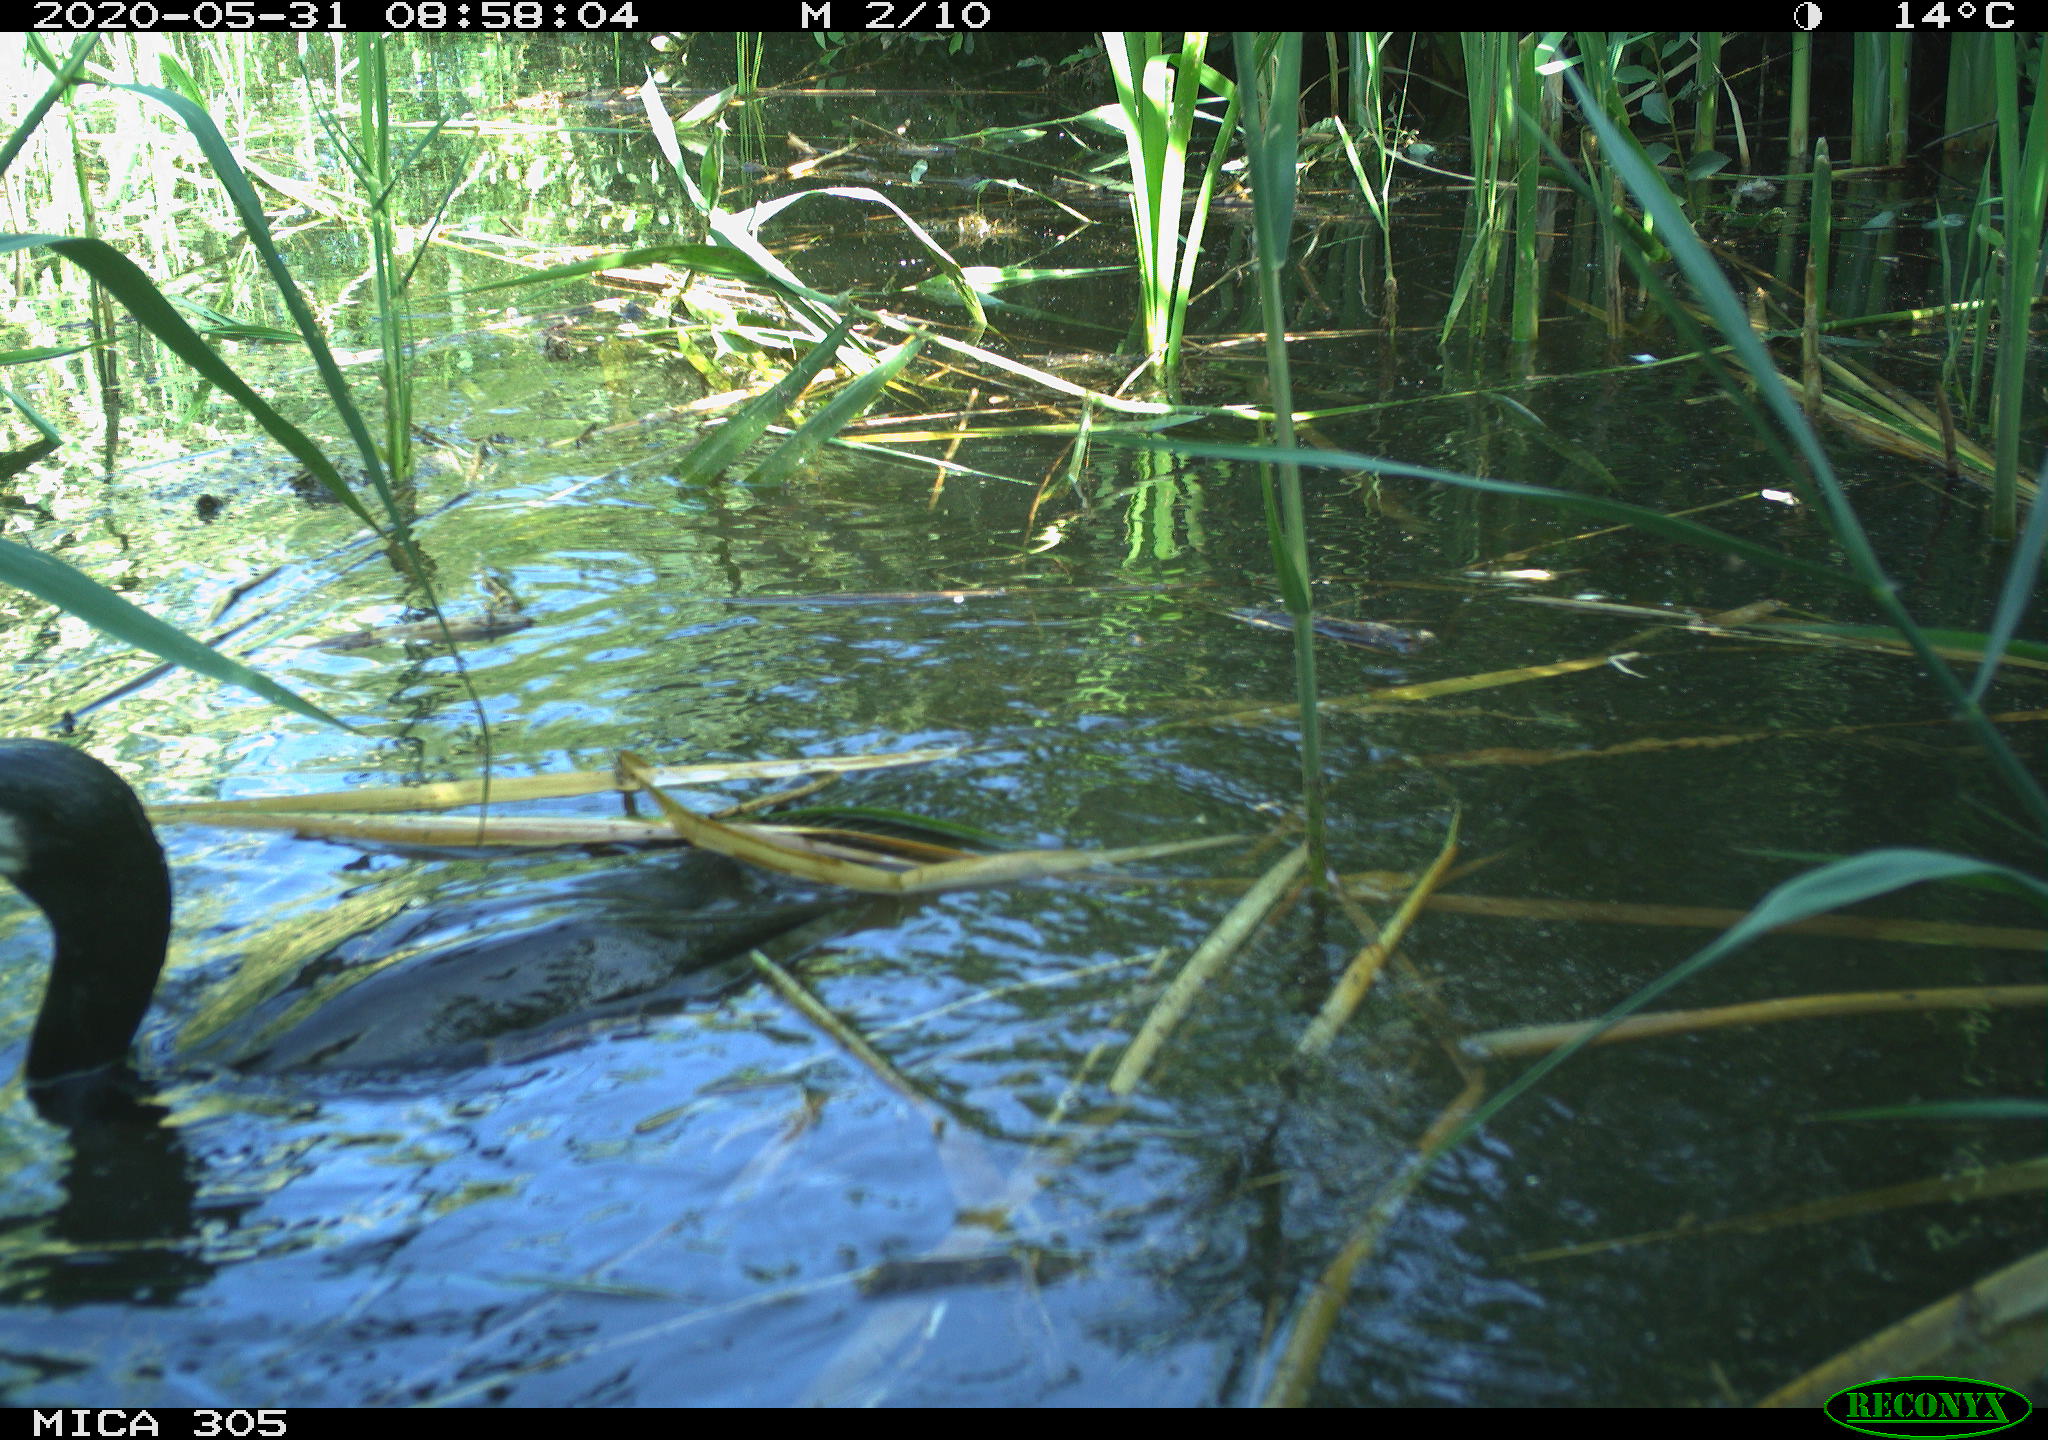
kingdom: Animalia
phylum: Chordata
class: Aves
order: Suliformes
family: Phalacrocoracidae
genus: Phalacrocorax
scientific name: Phalacrocorax carbo
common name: Great cormorant
